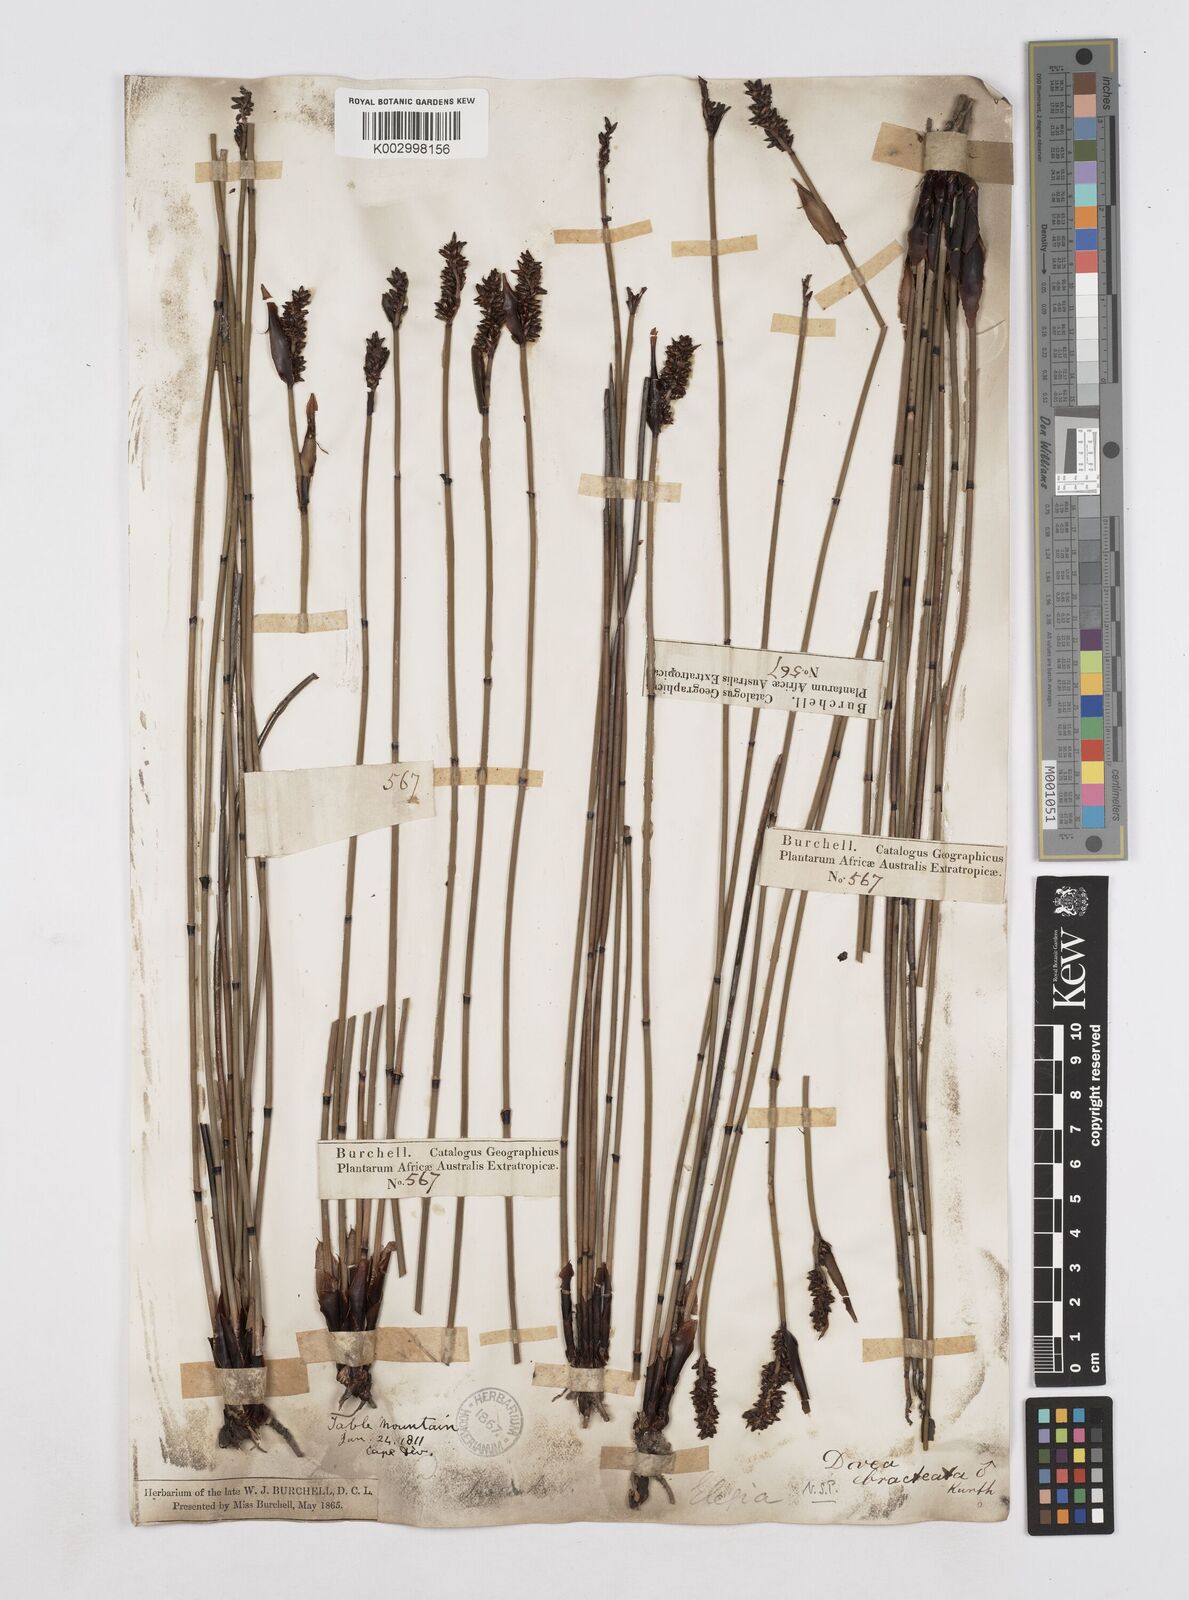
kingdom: Plantae
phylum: Tracheophyta
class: Liliopsida
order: Poales
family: Restionaceae
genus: Elegia
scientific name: Elegia hookeriana
